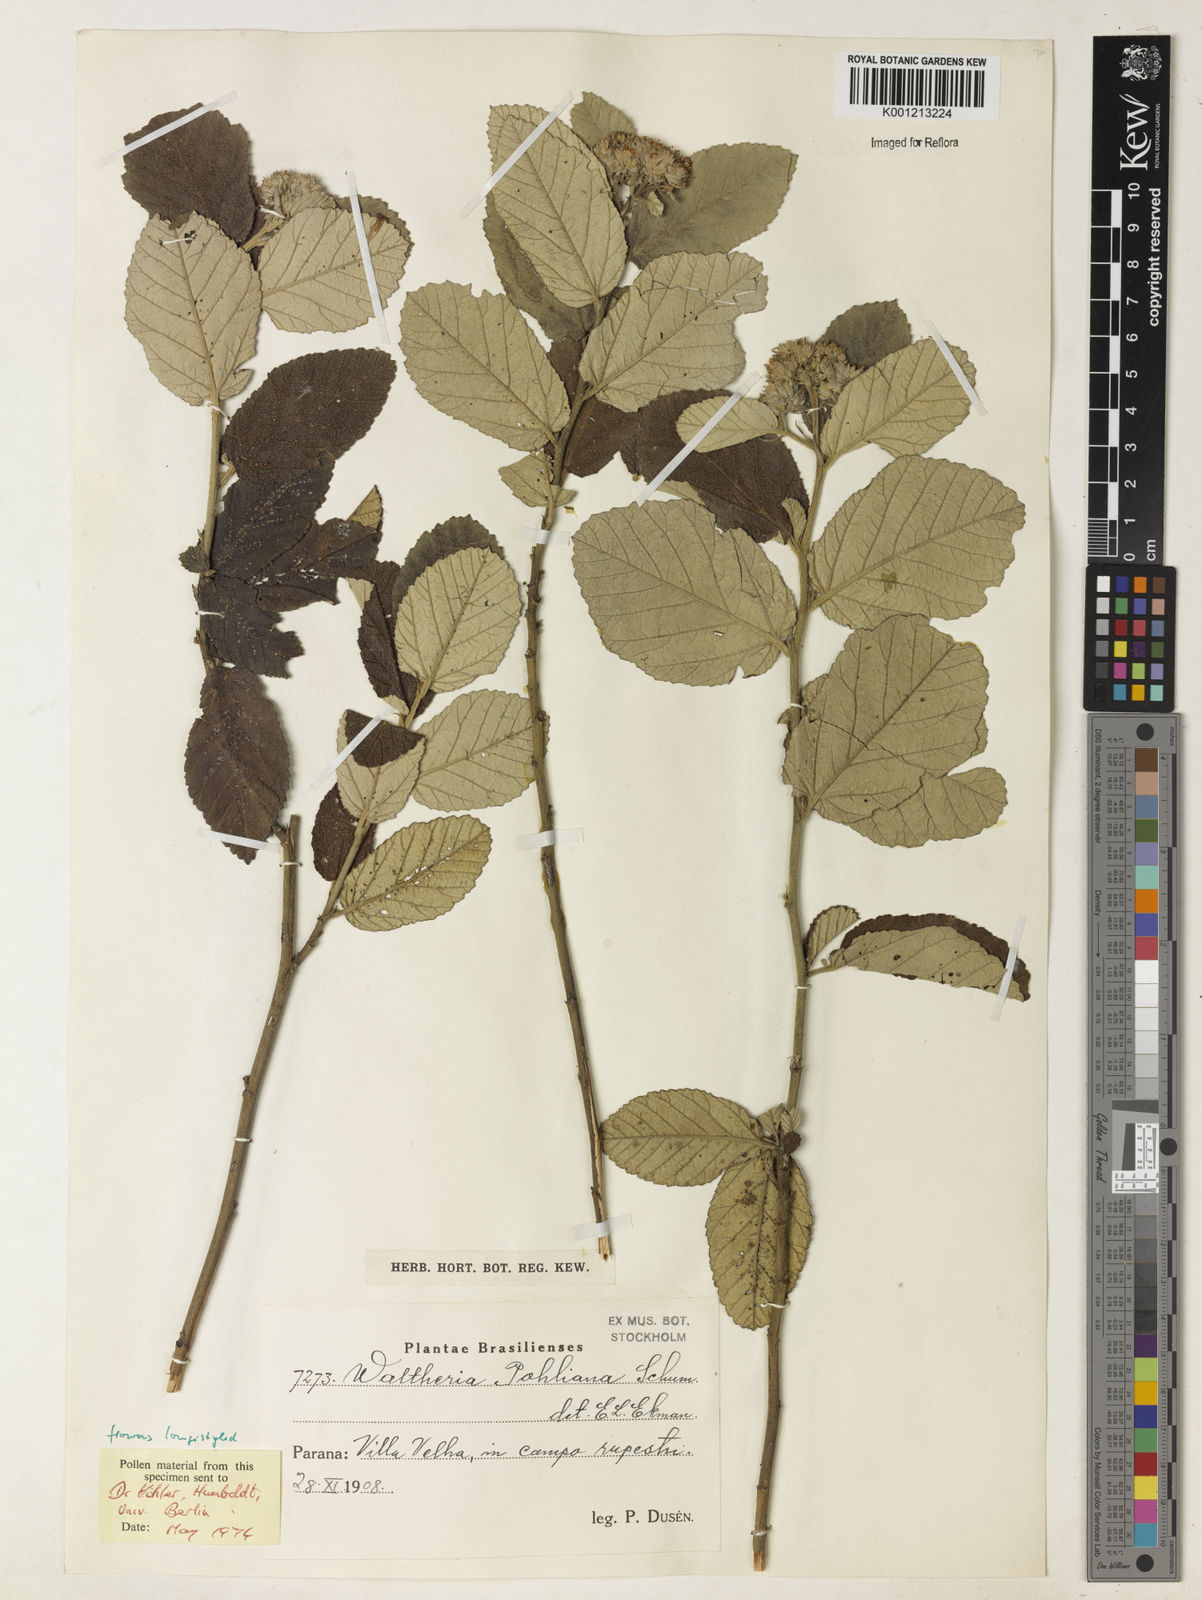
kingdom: Plantae
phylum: Tracheophyta
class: Magnoliopsida
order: Malvales
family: Malvaceae
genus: Waltheria
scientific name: Waltheria pohliana
